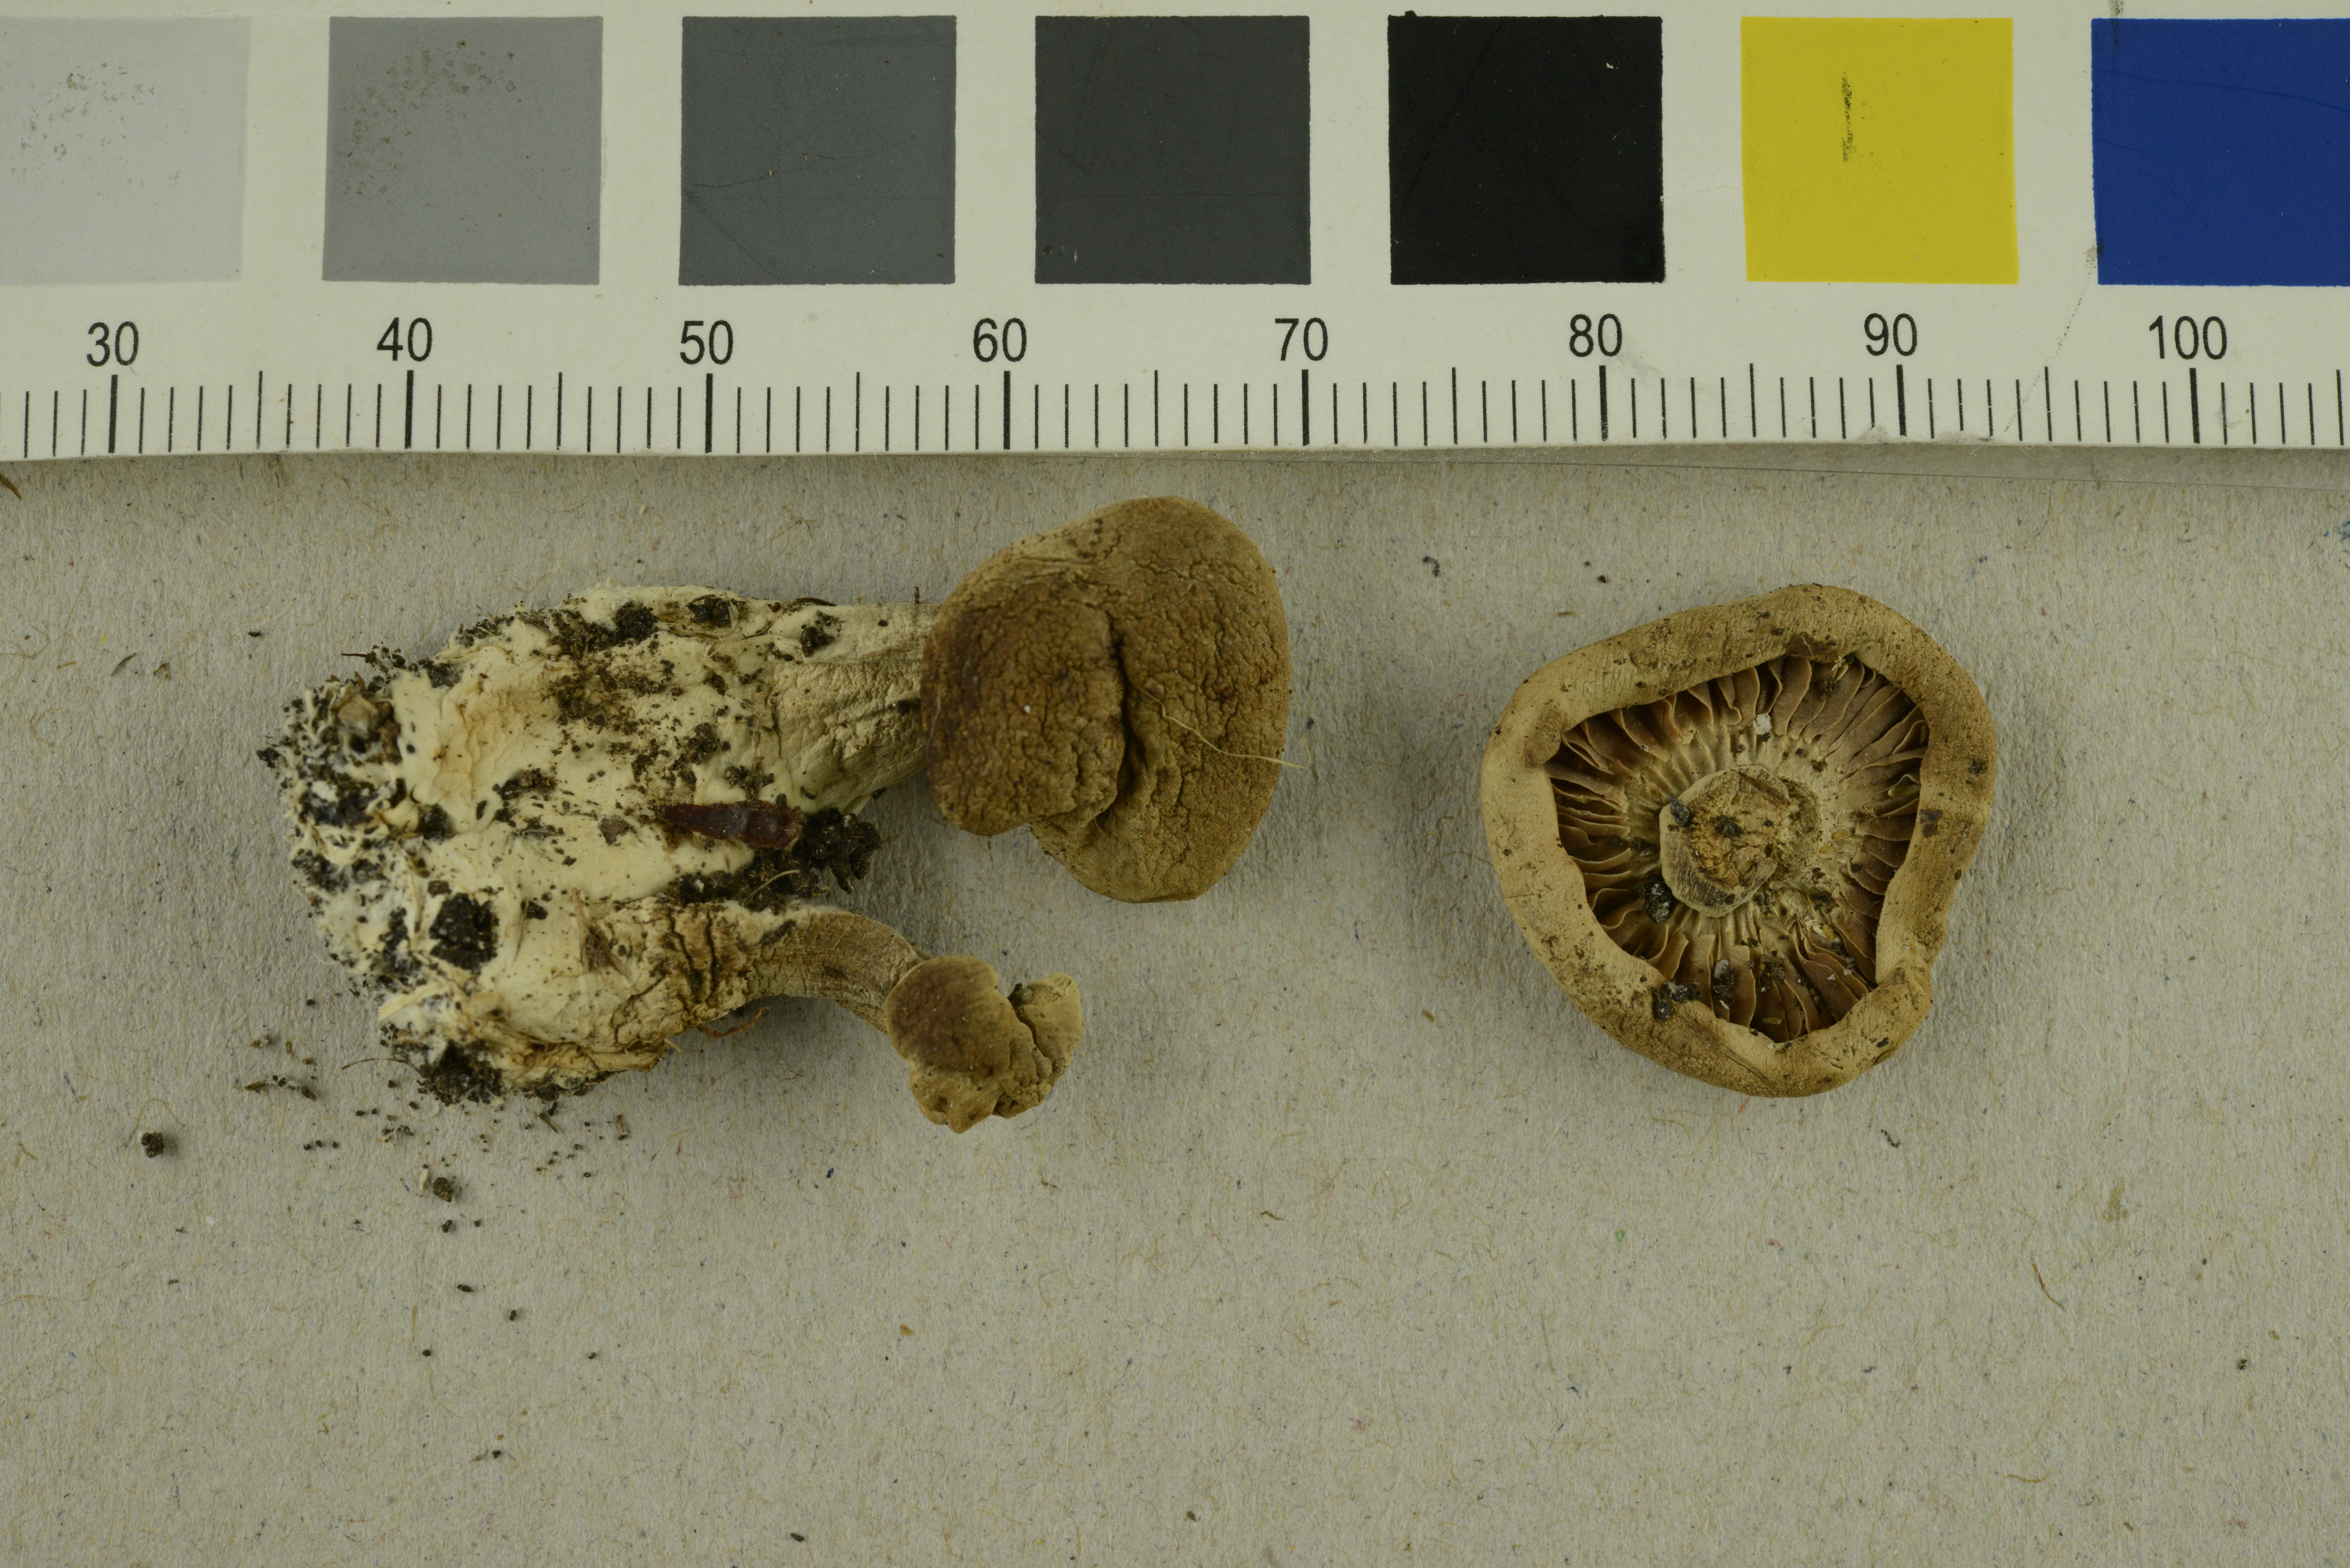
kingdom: Fungi
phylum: Basidiomycota
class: Agaricomycetes
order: Agaricales
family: Tricholomataceae
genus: Tricholoma
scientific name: Tricholoma album
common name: White knight
